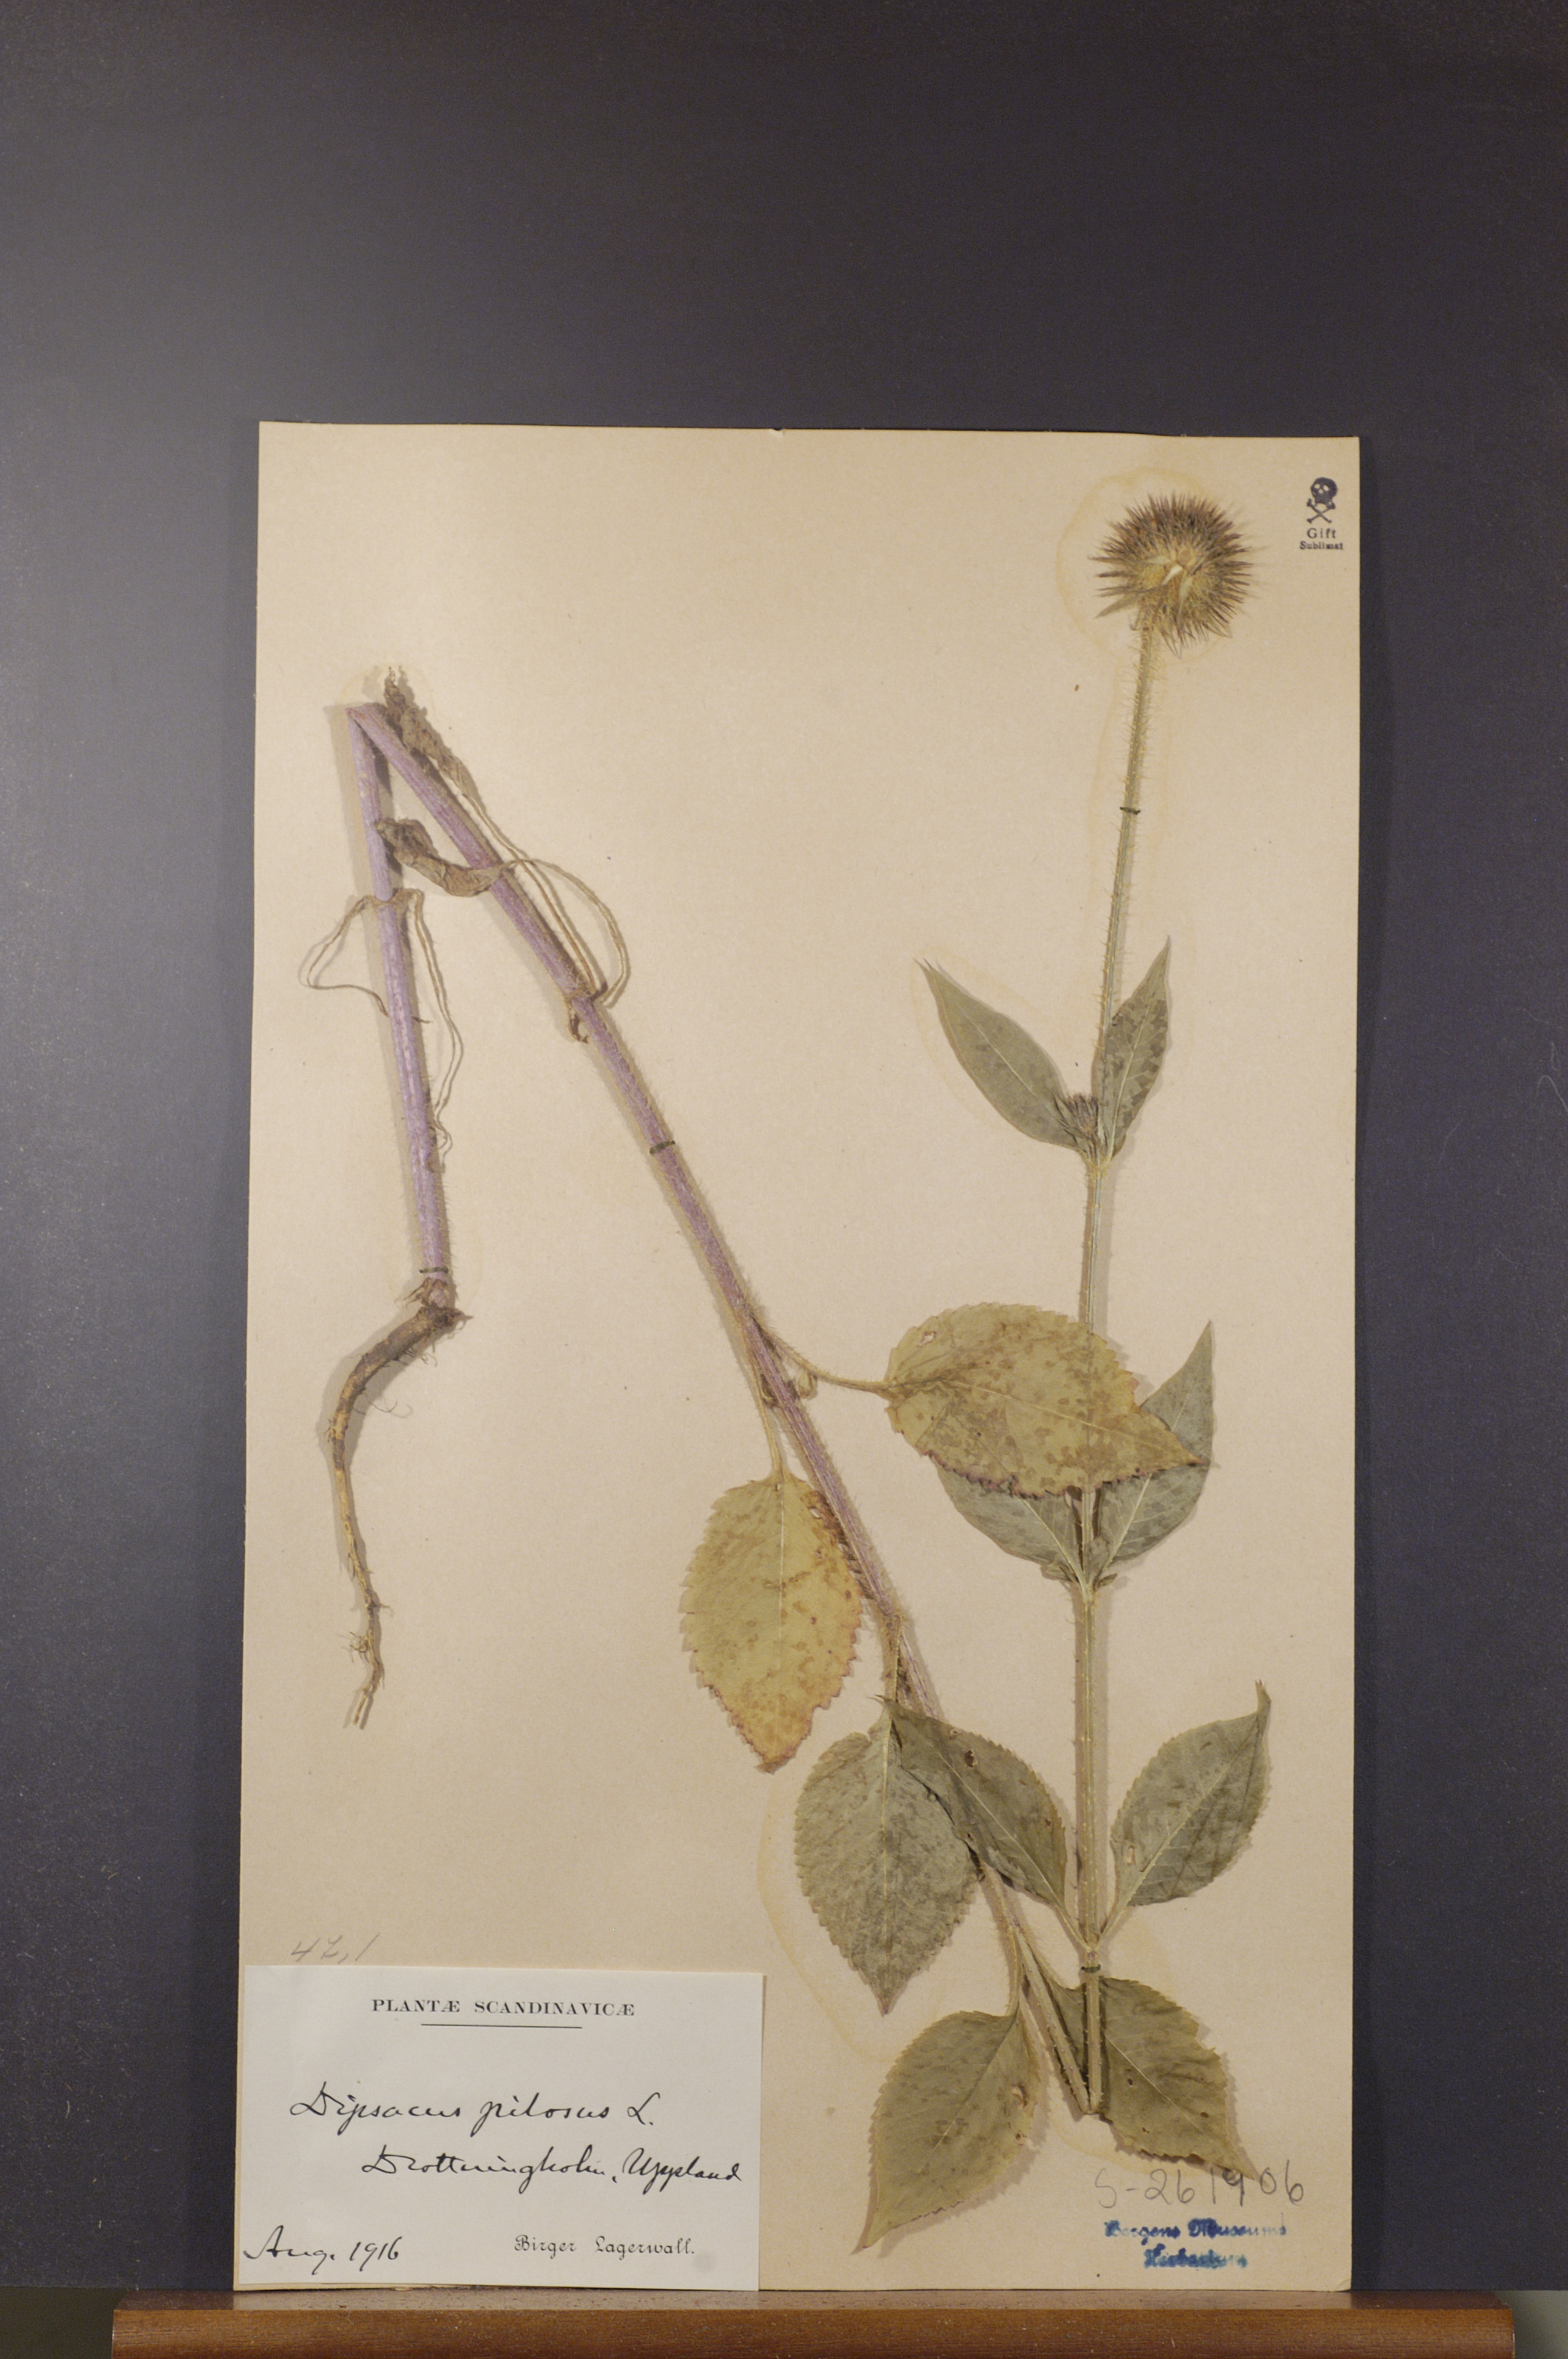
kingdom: Plantae
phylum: Tracheophyta
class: Magnoliopsida
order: Dipsacales
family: Caprifoliaceae
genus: Dipsacus
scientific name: Dipsacus pilosus
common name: Small teasel
